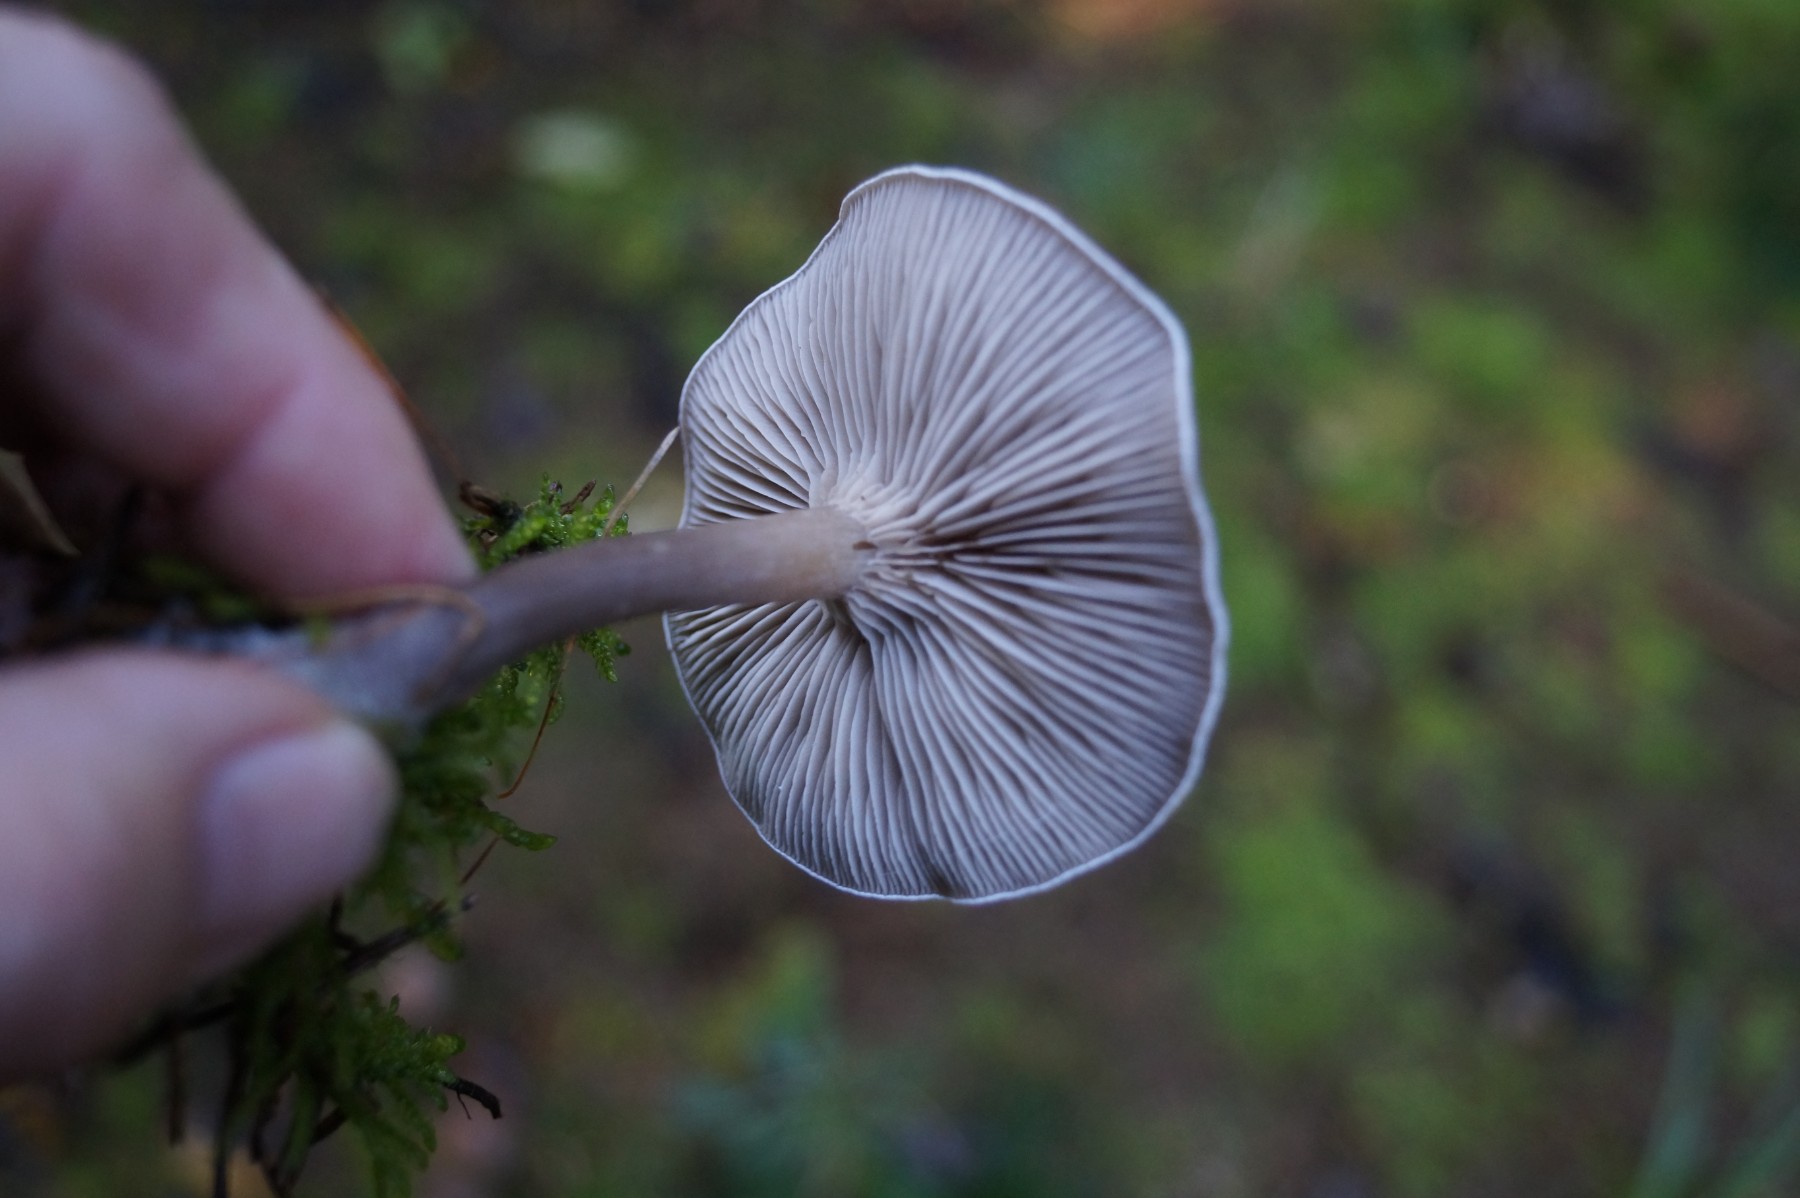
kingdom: Fungi
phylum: Basidiomycota
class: Agaricomycetes
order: Agaricales
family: Tricholomataceae
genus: Clitocybe
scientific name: Clitocybe
